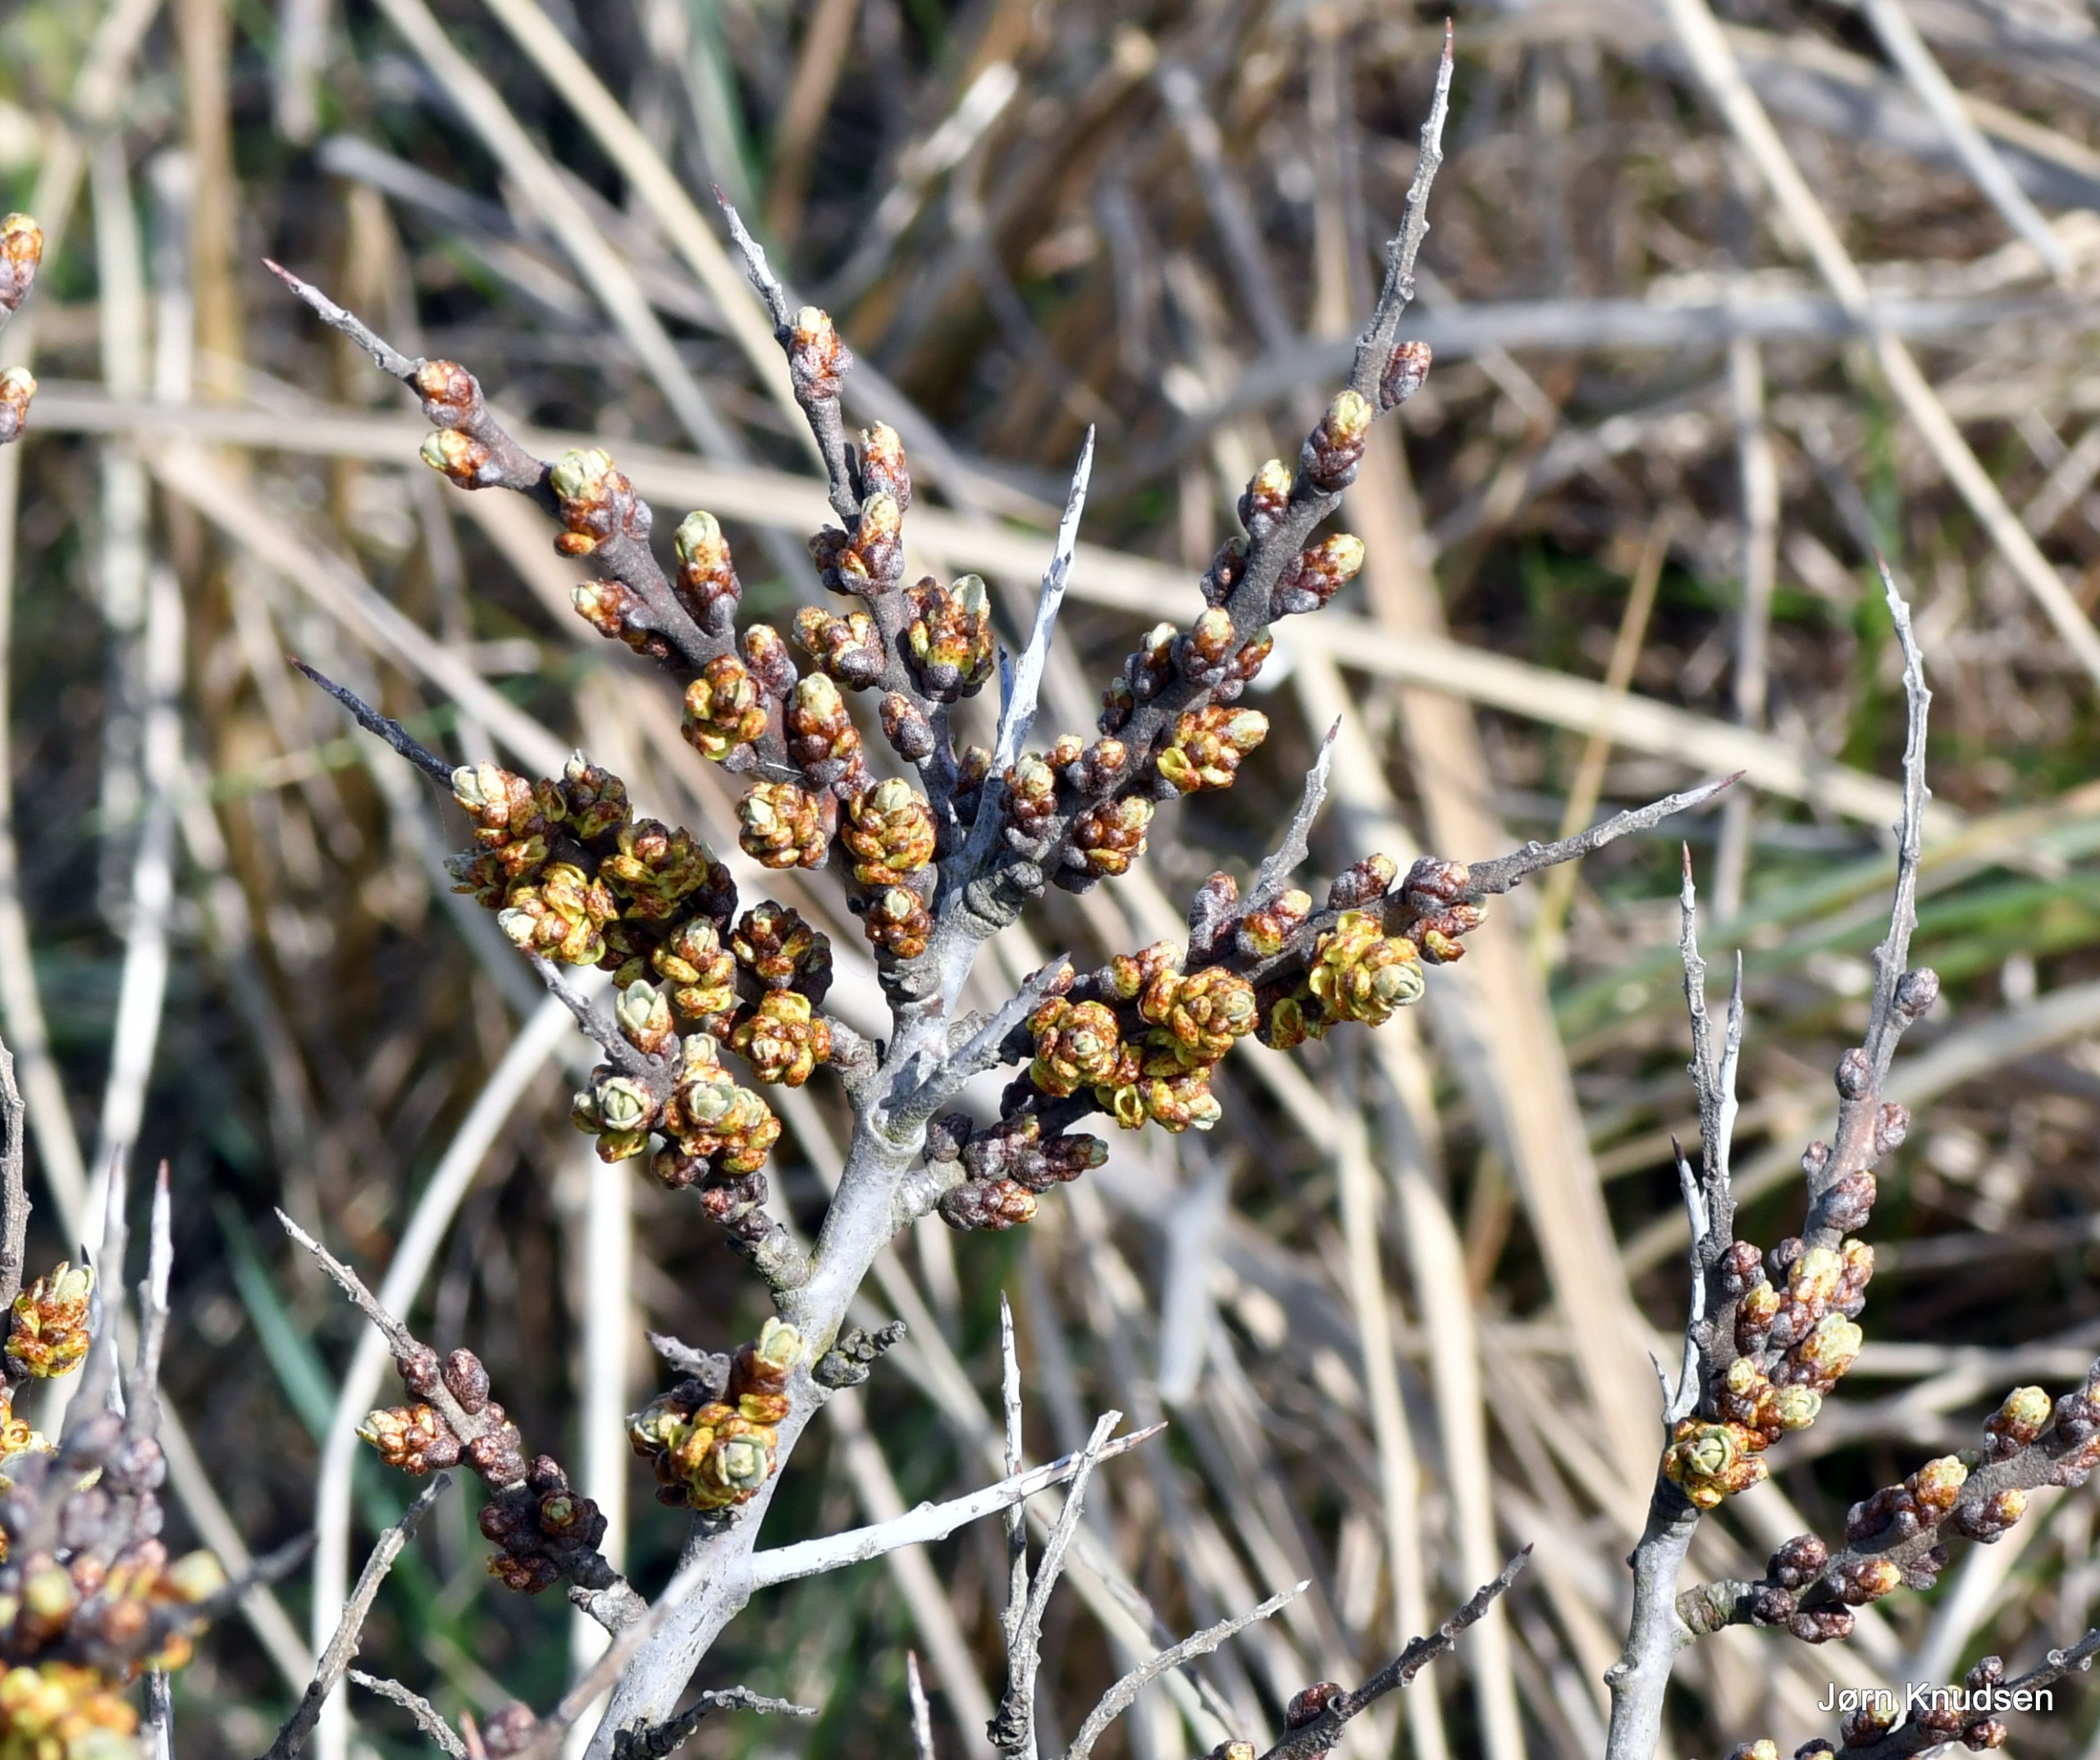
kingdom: Plantae
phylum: Tracheophyta
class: Magnoliopsida
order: Rosales
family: Elaeagnaceae
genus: Hippophae
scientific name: Hippophae rhamnoides
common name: Havtorn
